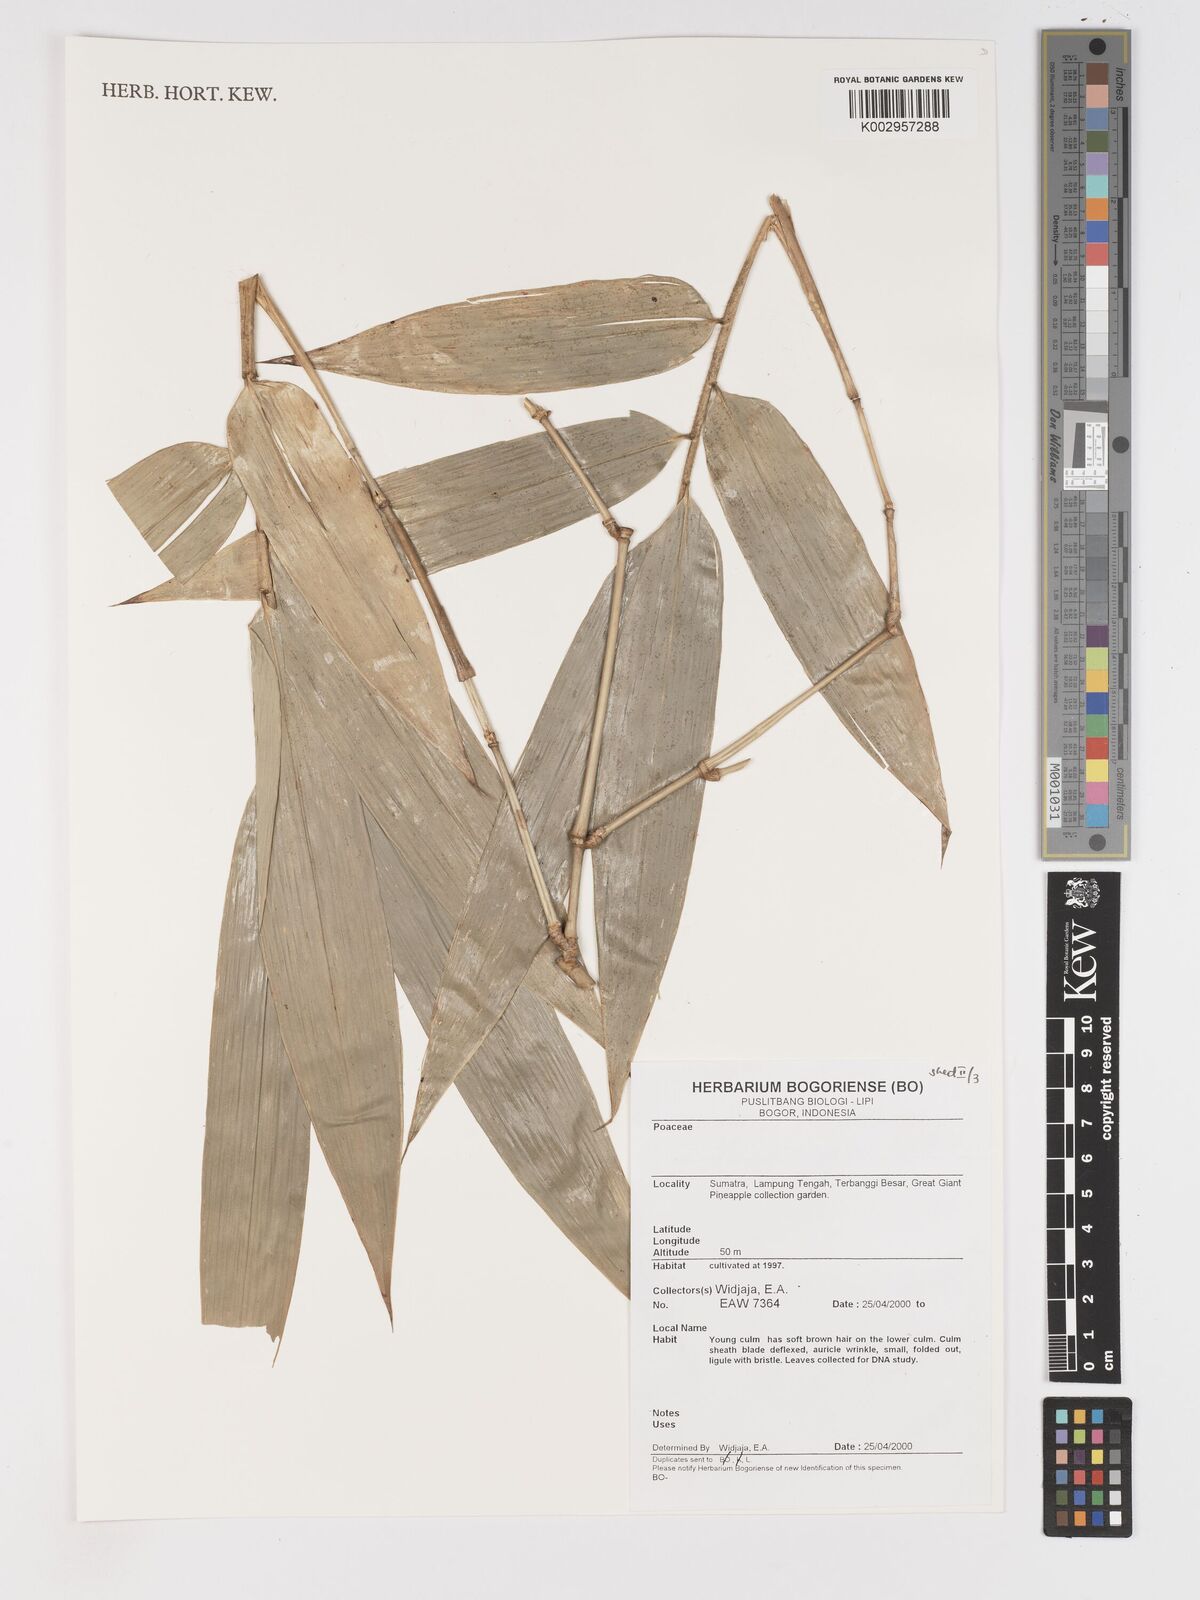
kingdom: Plantae
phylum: Tracheophyta
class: Liliopsida
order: Poales
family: Poaceae
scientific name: Poaceae
